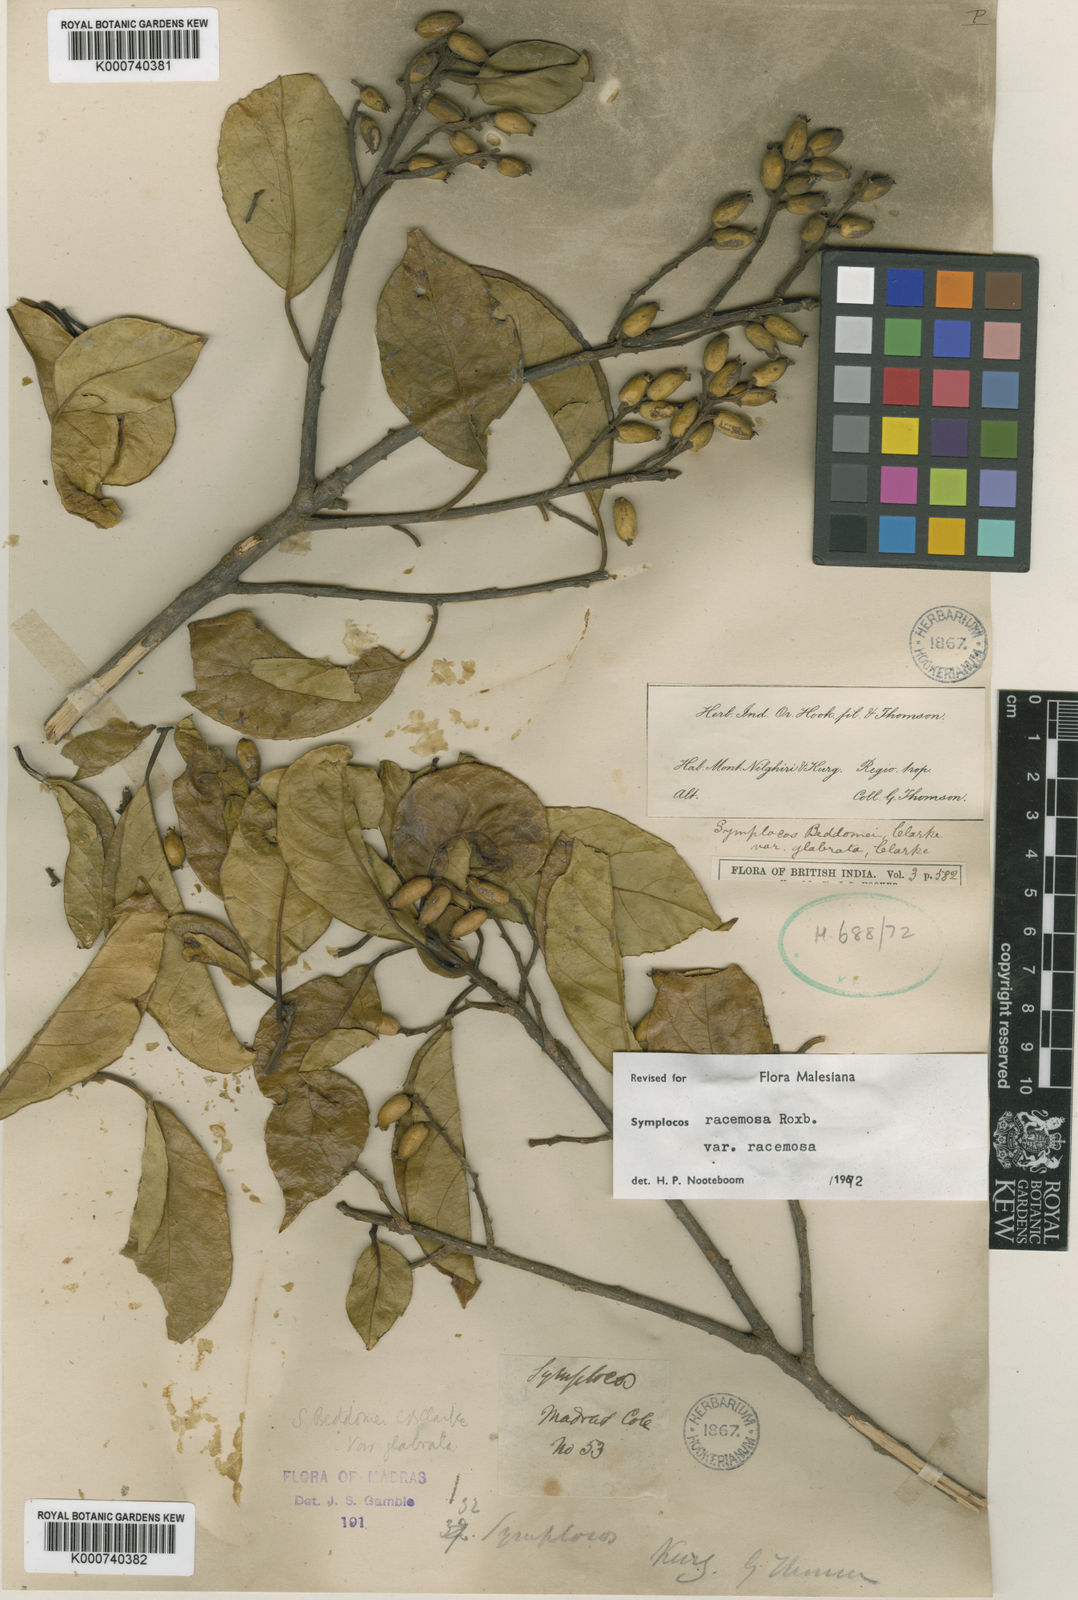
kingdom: Plantae
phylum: Tracheophyta
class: Magnoliopsida
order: Ericales
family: Symplocaceae
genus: Symplocos
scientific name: Symplocos racemosa
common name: Lodhtree
